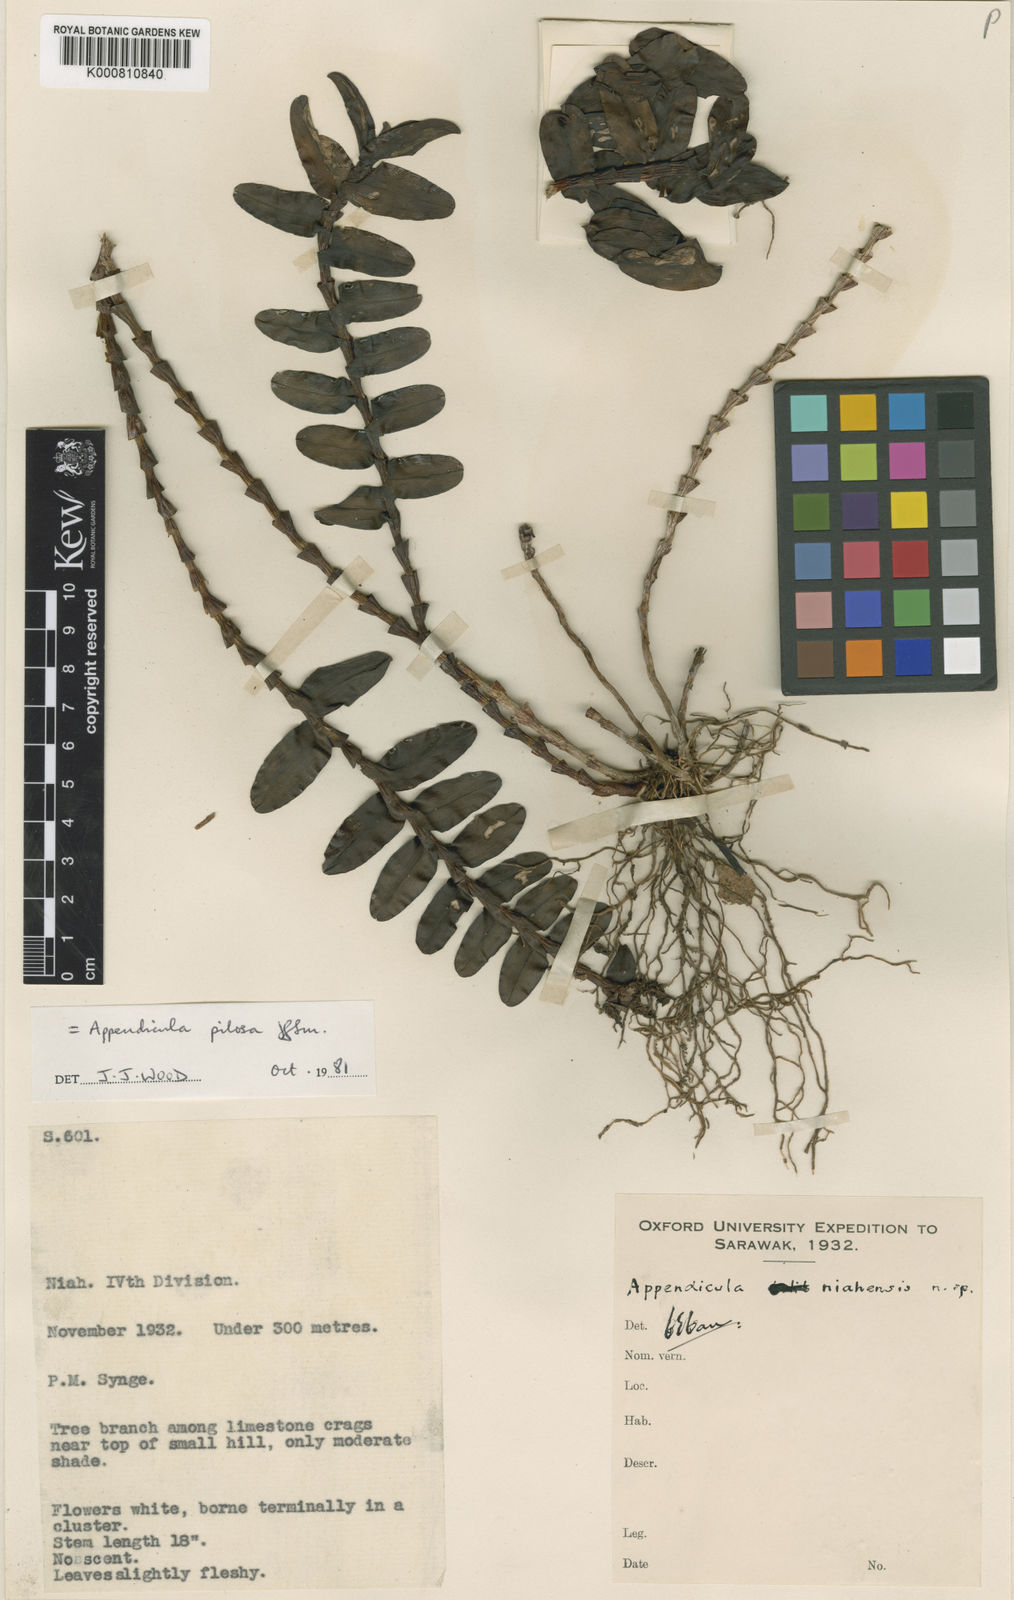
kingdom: Plantae
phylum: Tracheophyta
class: Liliopsida
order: Asparagales
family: Orchidaceae
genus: Appendicula
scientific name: Appendicula pilosa
